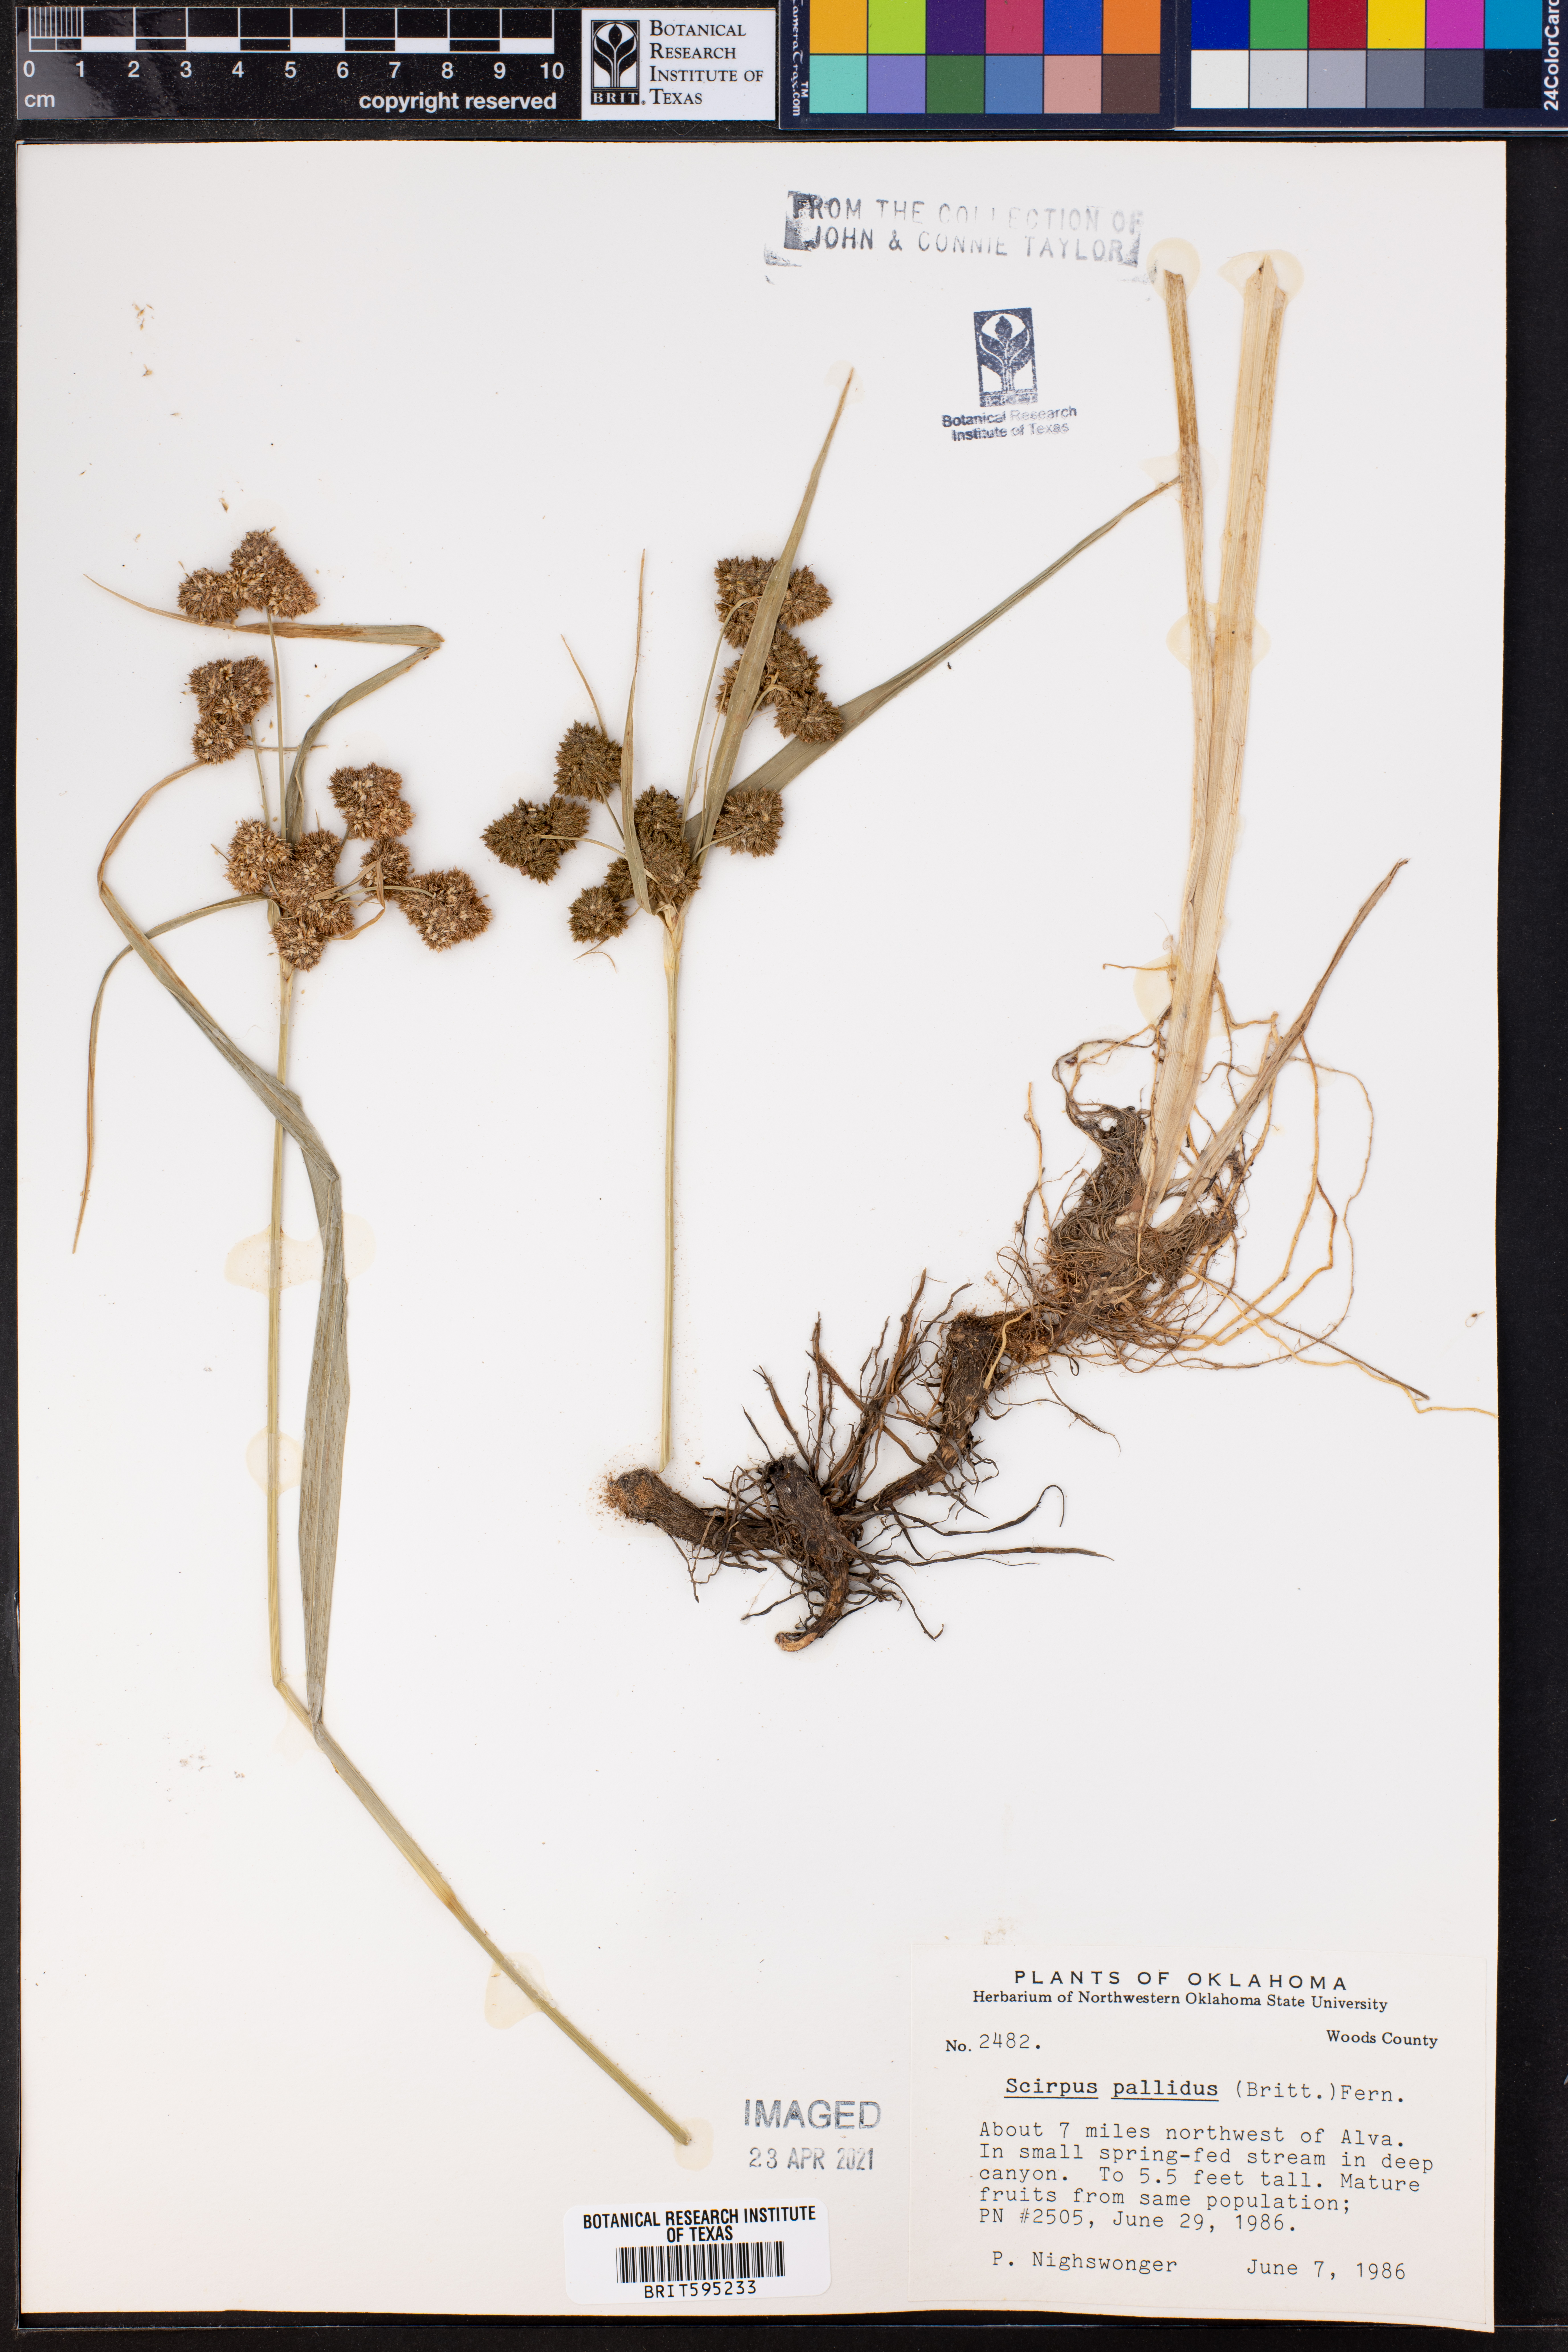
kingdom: Plantae
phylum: Tracheophyta
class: Liliopsida
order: Poales
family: Cyperaceae
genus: Scirpus
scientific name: Scirpus pallidus
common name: Cloaked bulrush
